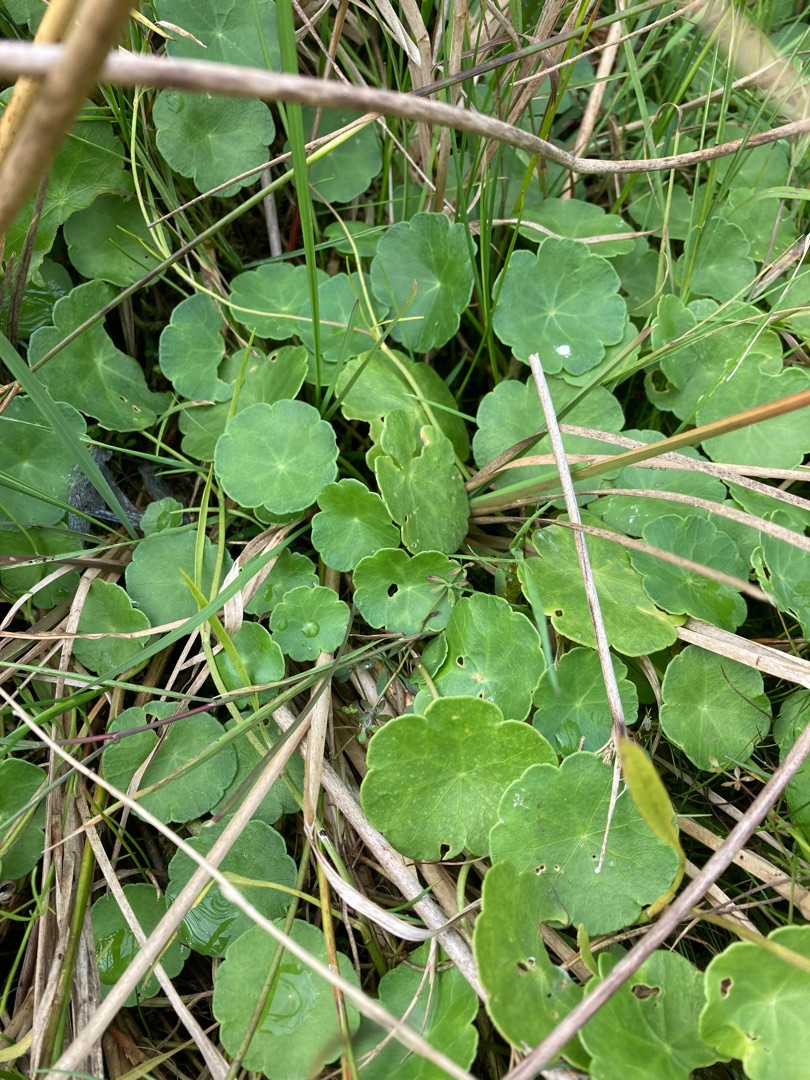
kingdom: Plantae
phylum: Tracheophyta
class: Magnoliopsida
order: Apiales
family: Araliaceae
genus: Hydrocotyle
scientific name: Hydrocotyle vulgaris
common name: Vandnavle
